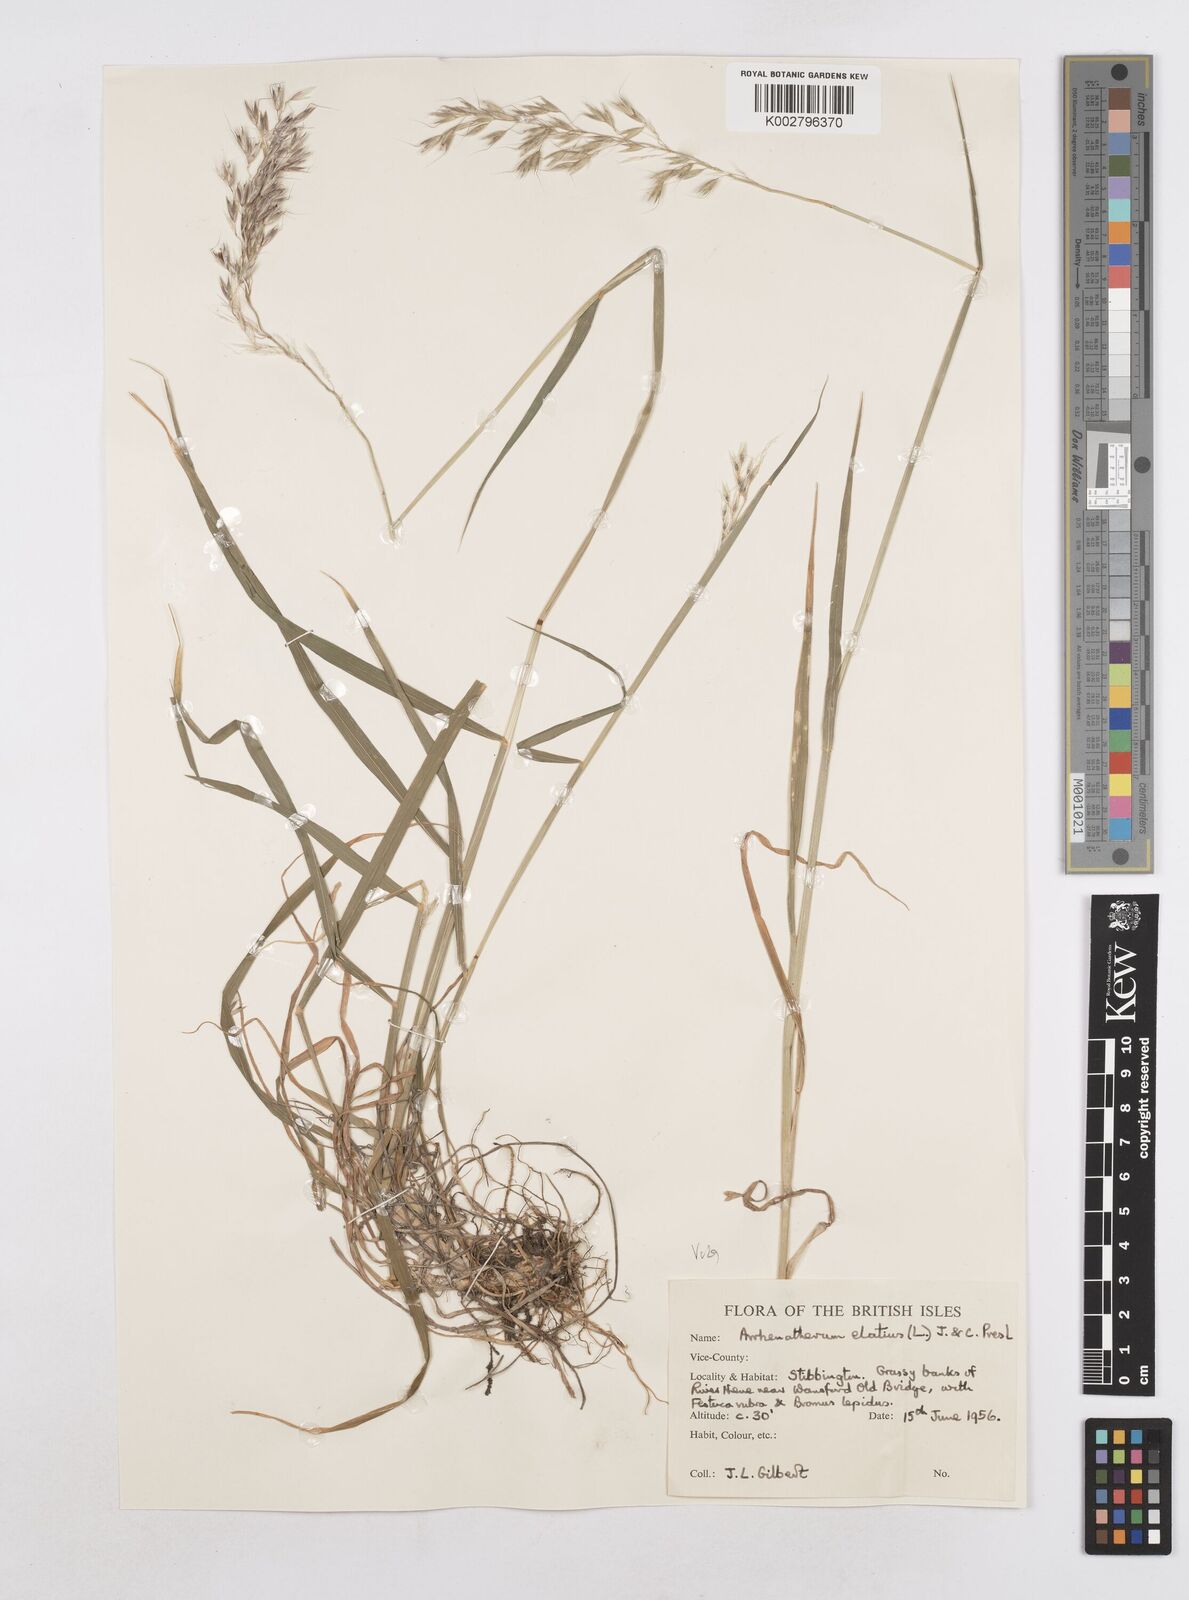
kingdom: Plantae
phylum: Tracheophyta
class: Liliopsida
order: Poales
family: Poaceae
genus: Arrhenatherum
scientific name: Arrhenatherum elatius
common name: Tall oatgrass
